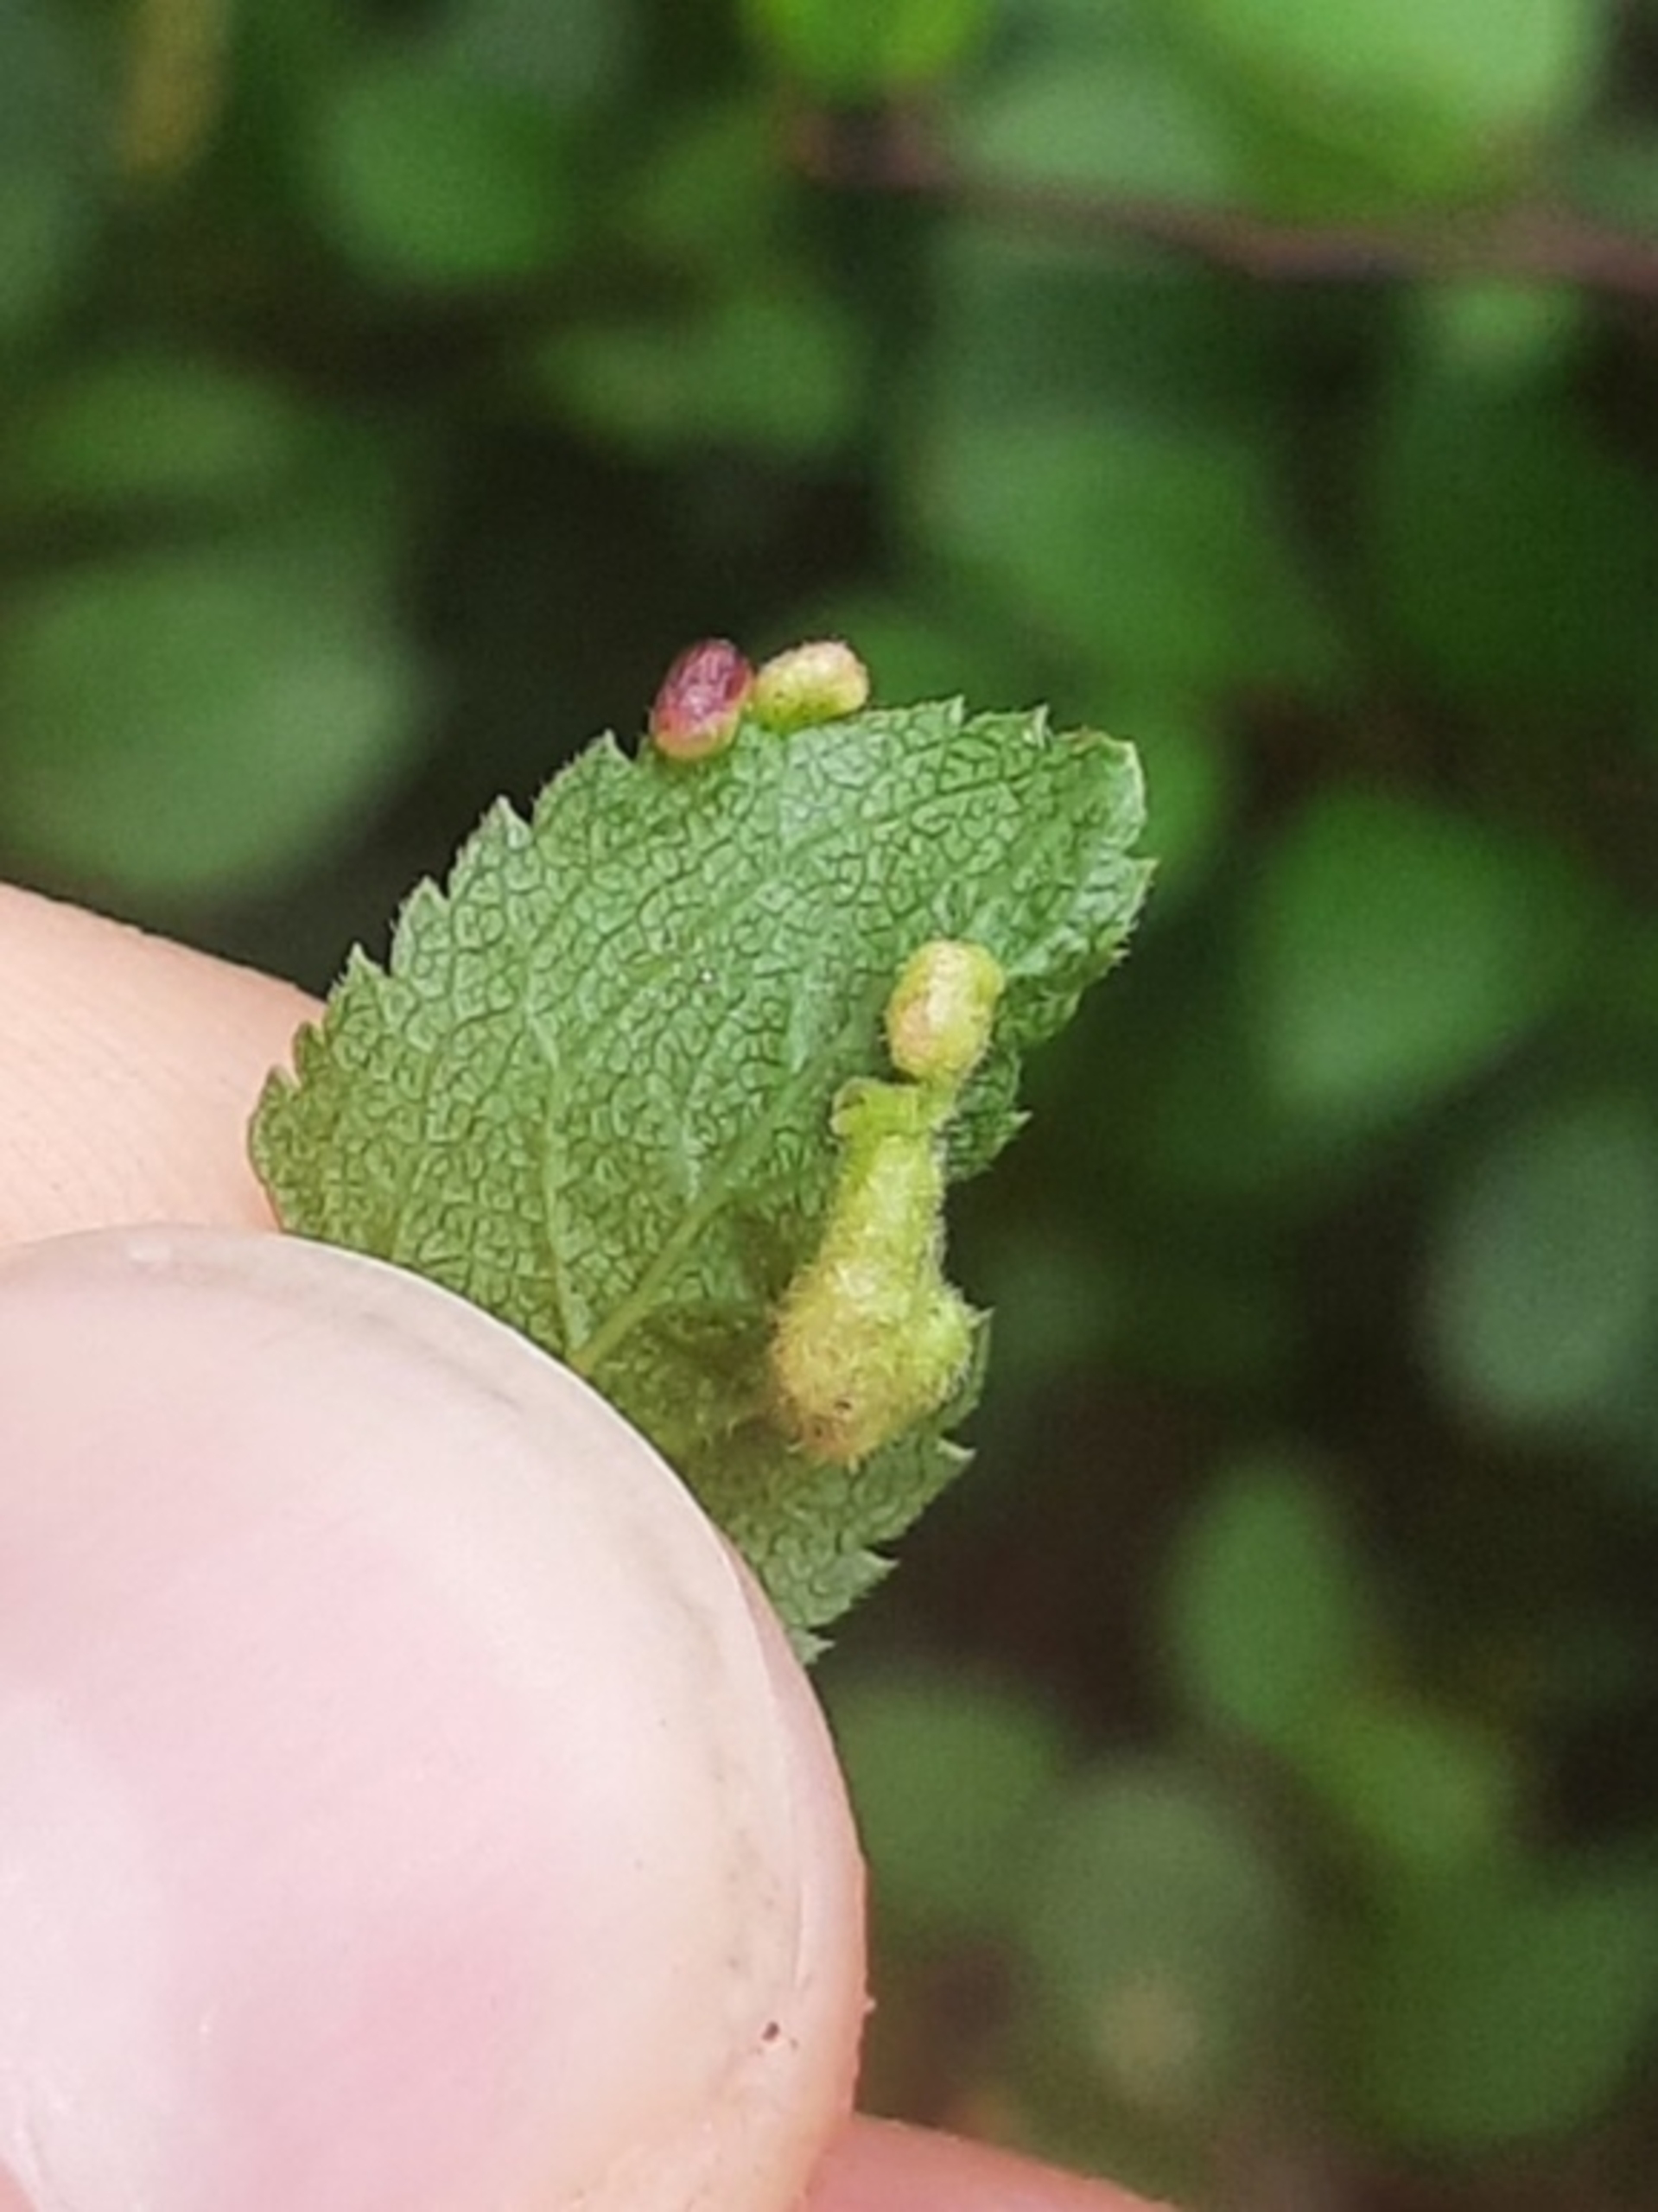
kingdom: Animalia
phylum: Arthropoda
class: Arachnida
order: Trombidiformes
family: Eriophyidae
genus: Eriophyes
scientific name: Eriophyes similis
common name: Blommepunggalmide
